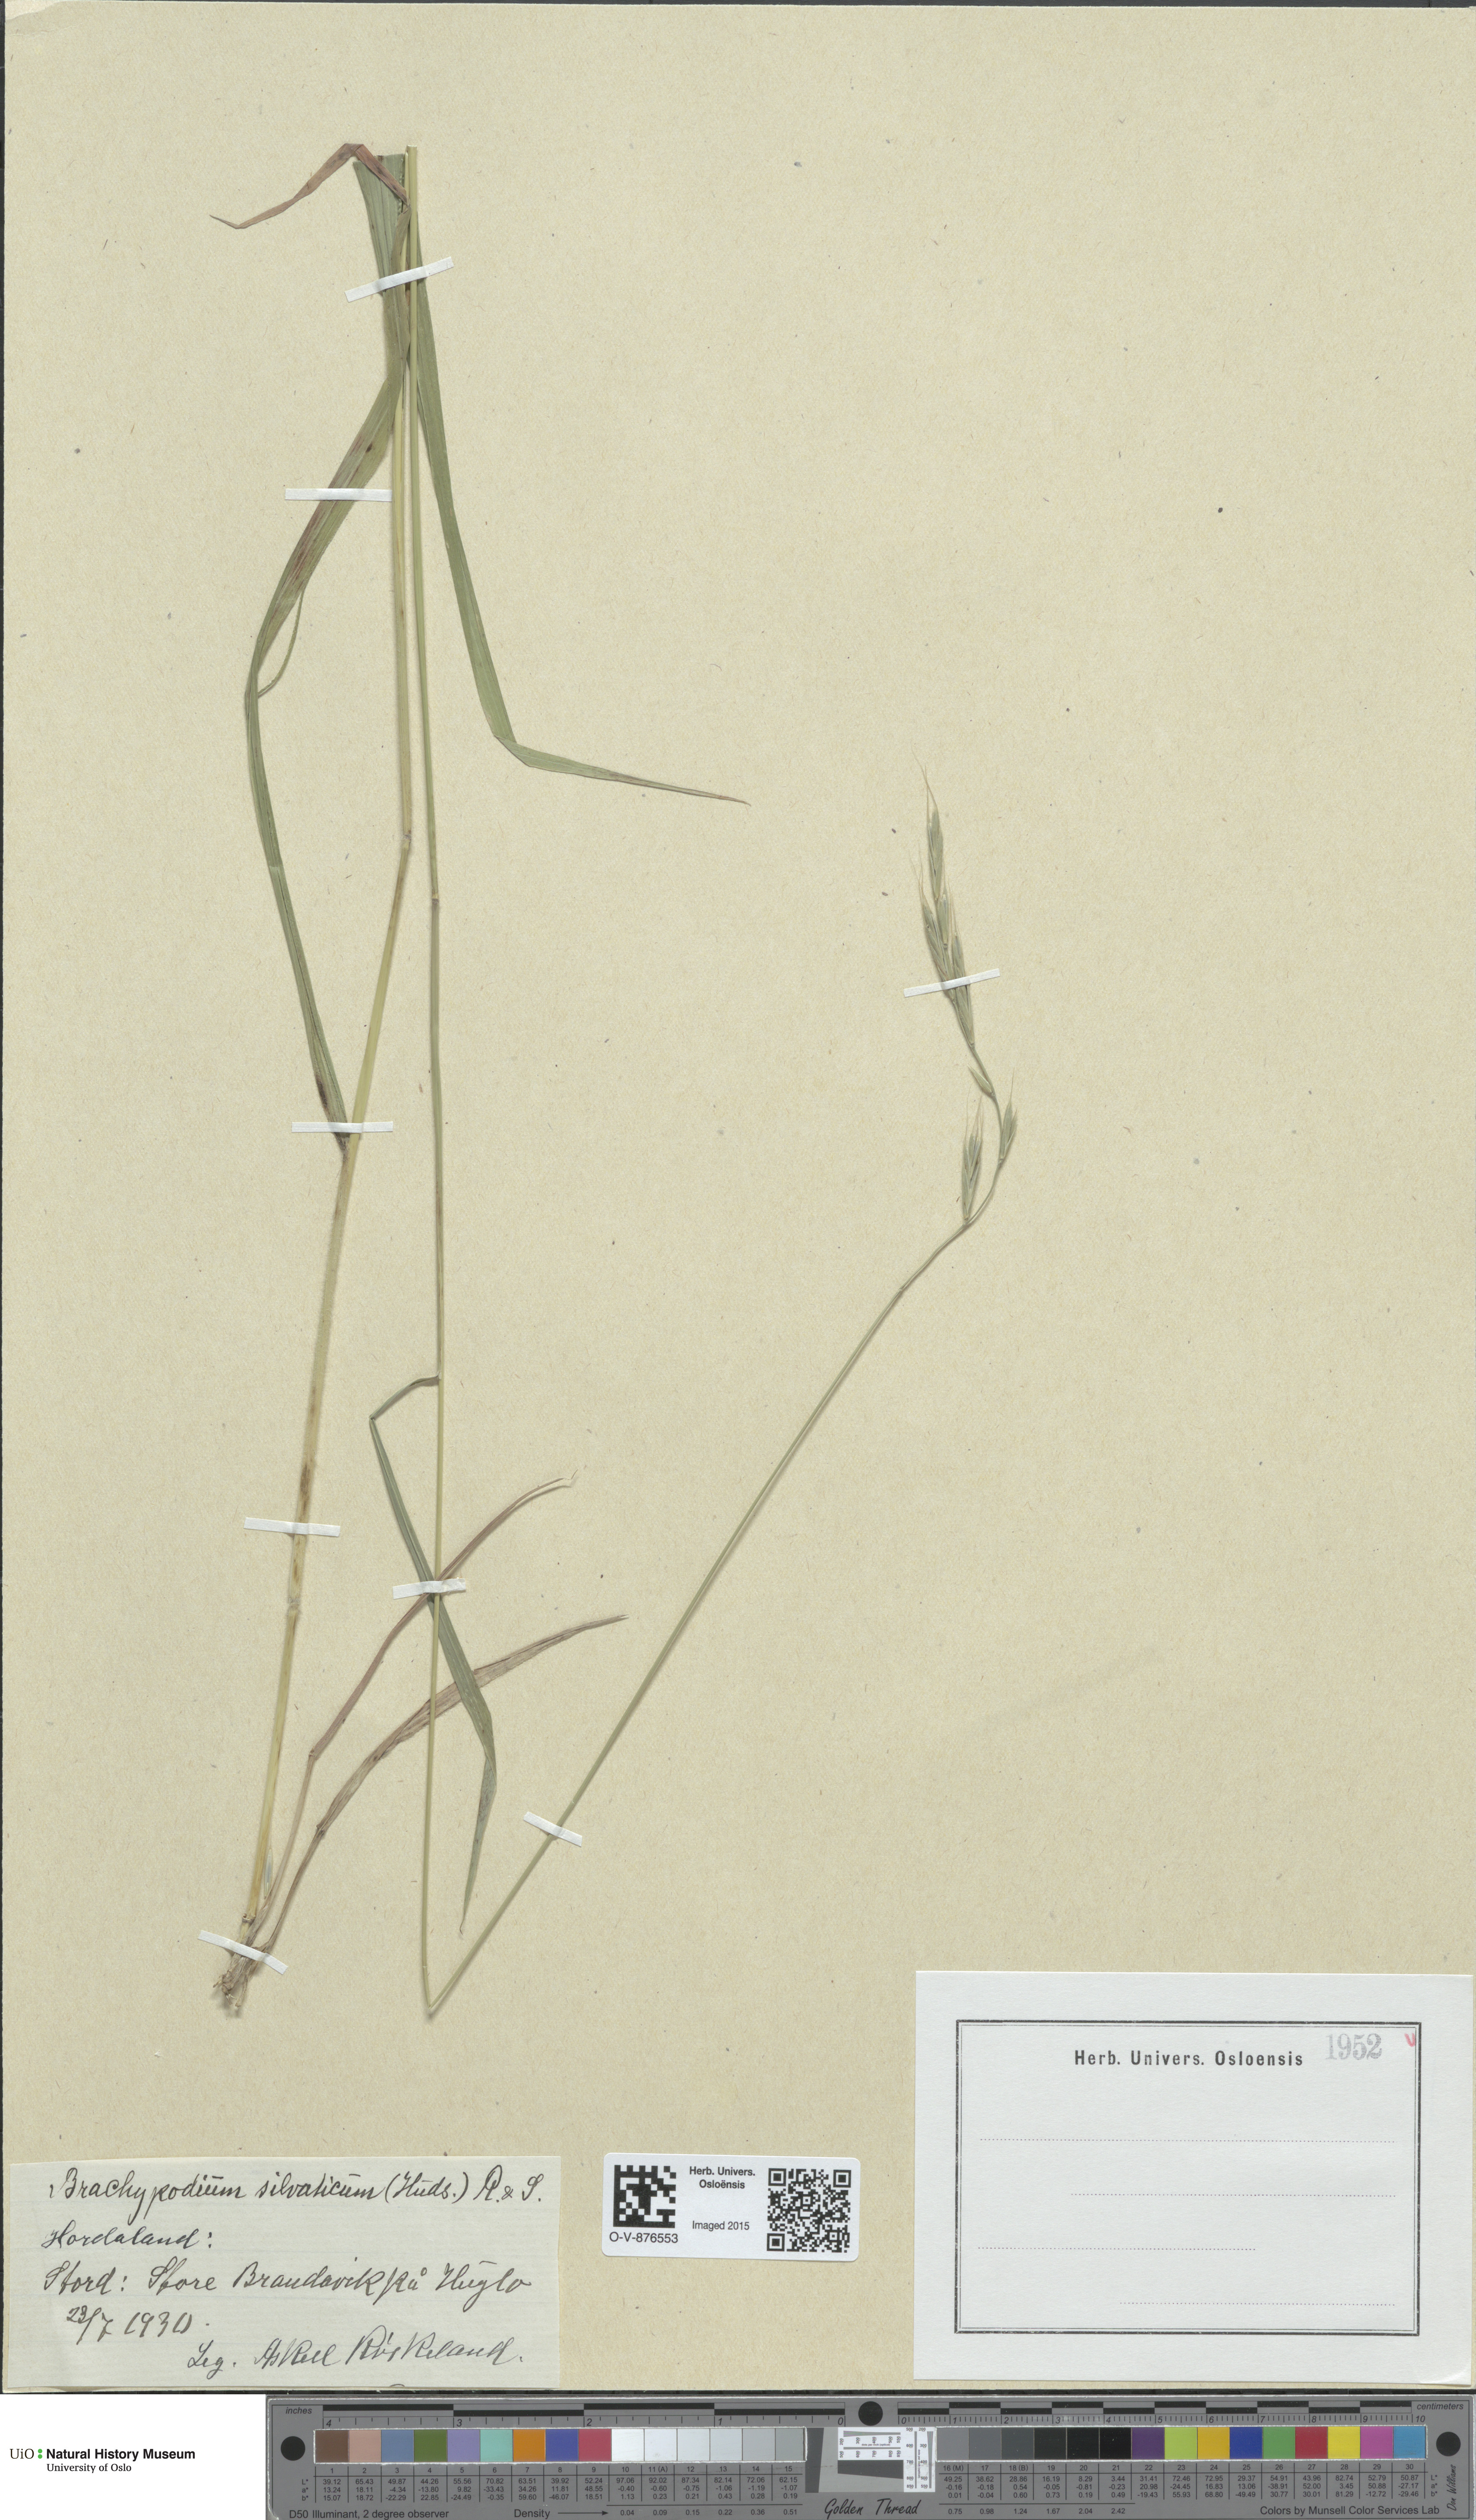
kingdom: Plantae
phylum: Tracheophyta
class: Liliopsida
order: Poales
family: Poaceae
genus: Brachypodium
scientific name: Brachypodium sylvaticum
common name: False-brome
